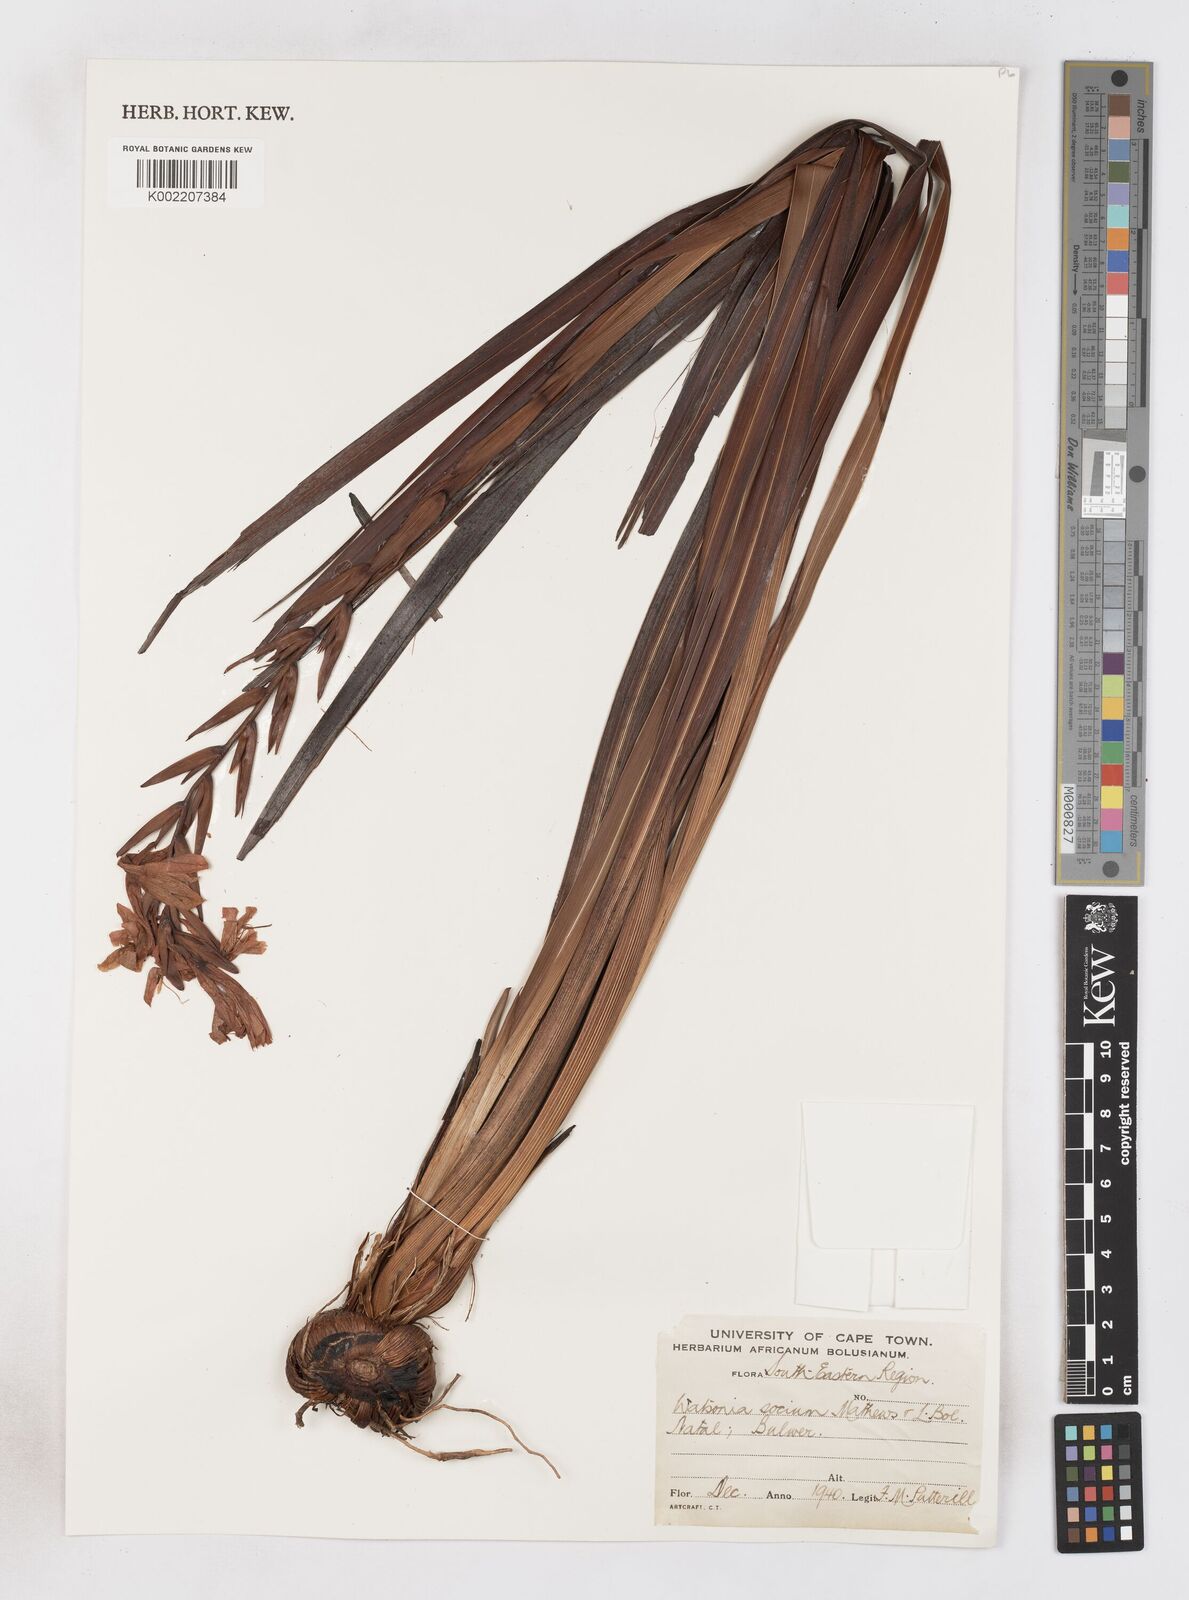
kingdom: Plantae
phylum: Tracheophyta
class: Liliopsida
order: Asparagales
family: Iridaceae
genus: Watsonia
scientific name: Watsonia pillansii
